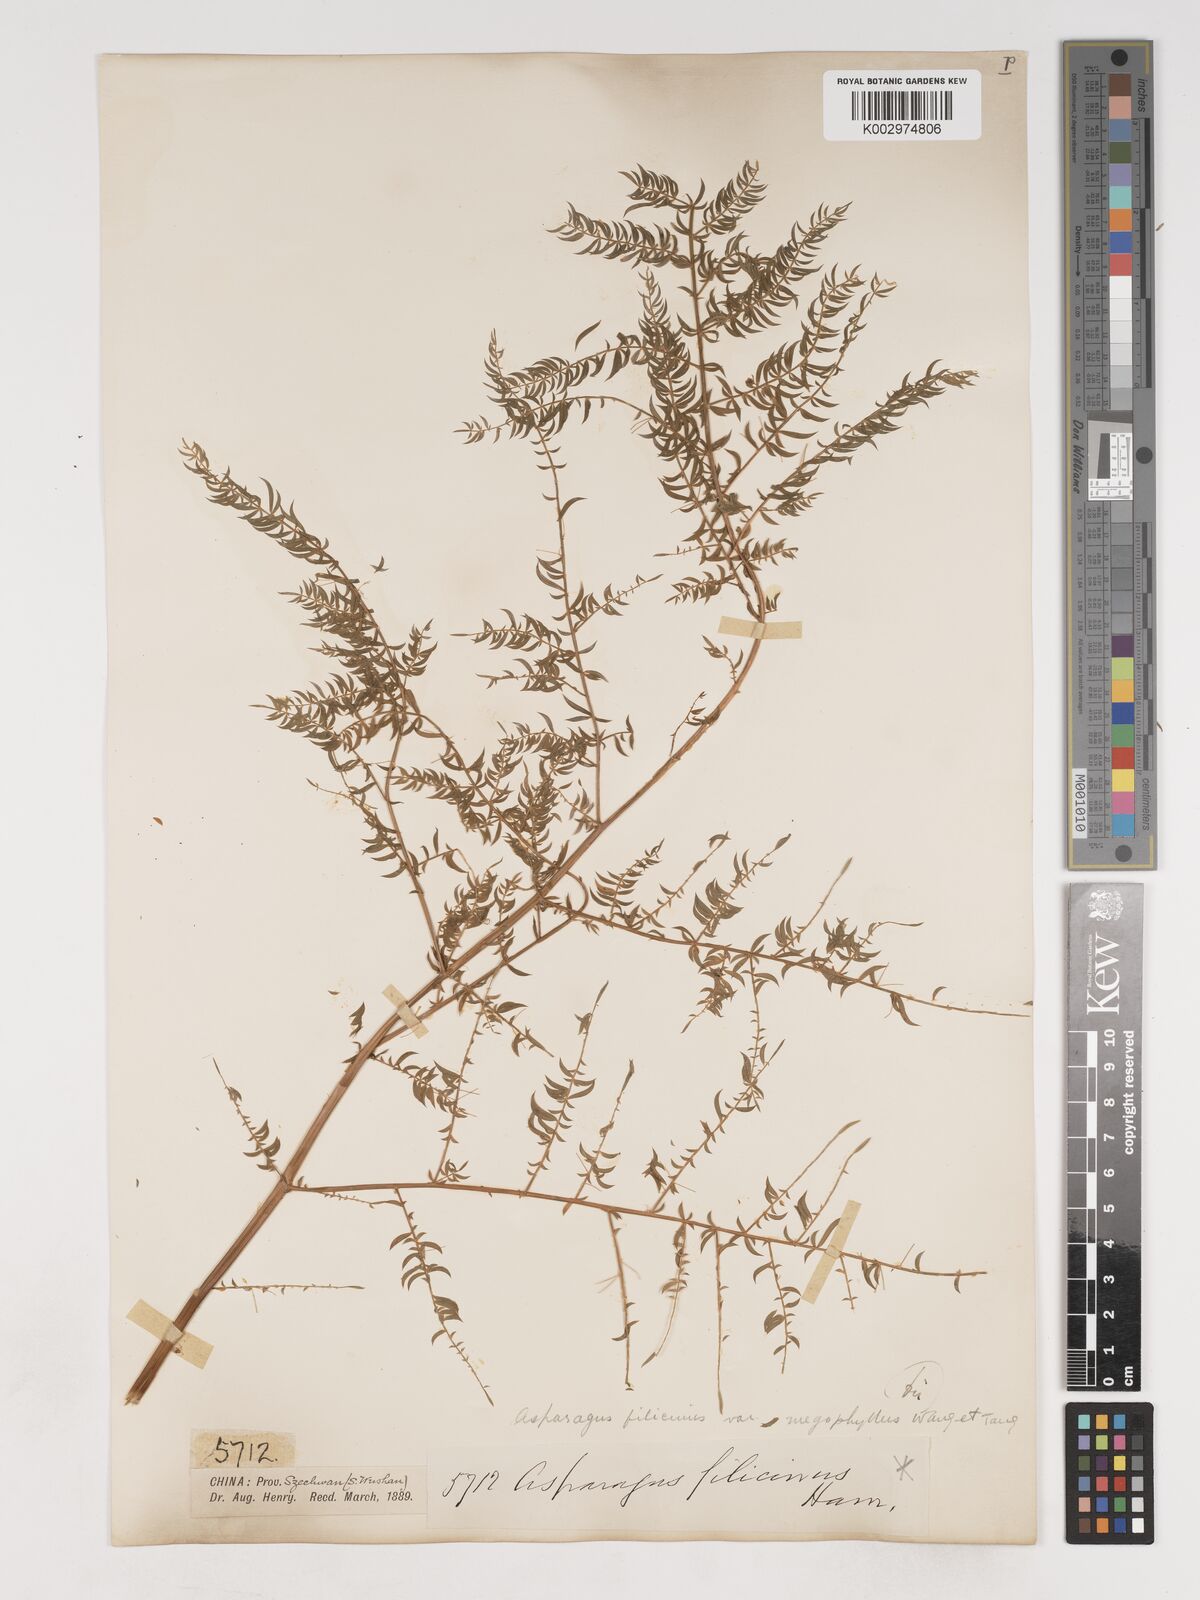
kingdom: Plantae
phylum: Tracheophyta
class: Liliopsida
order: Asparagales
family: Asparagaceae
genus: Asparagus
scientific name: Asparagus filicinus
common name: Fern asparagus
